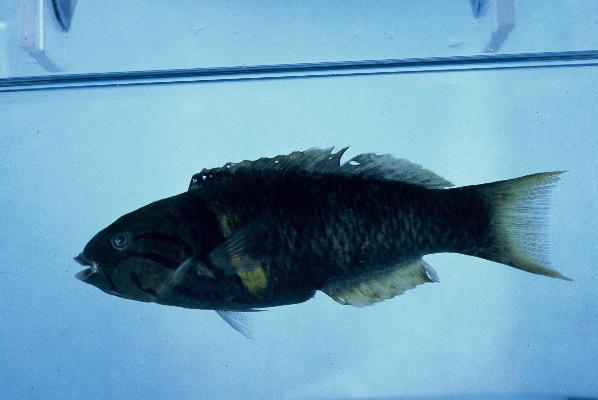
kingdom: Animalia
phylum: Chordata
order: Perciformes
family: Labridae
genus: Thalassoma
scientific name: Thalassoma hebraicum
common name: Goldbar wrasse
